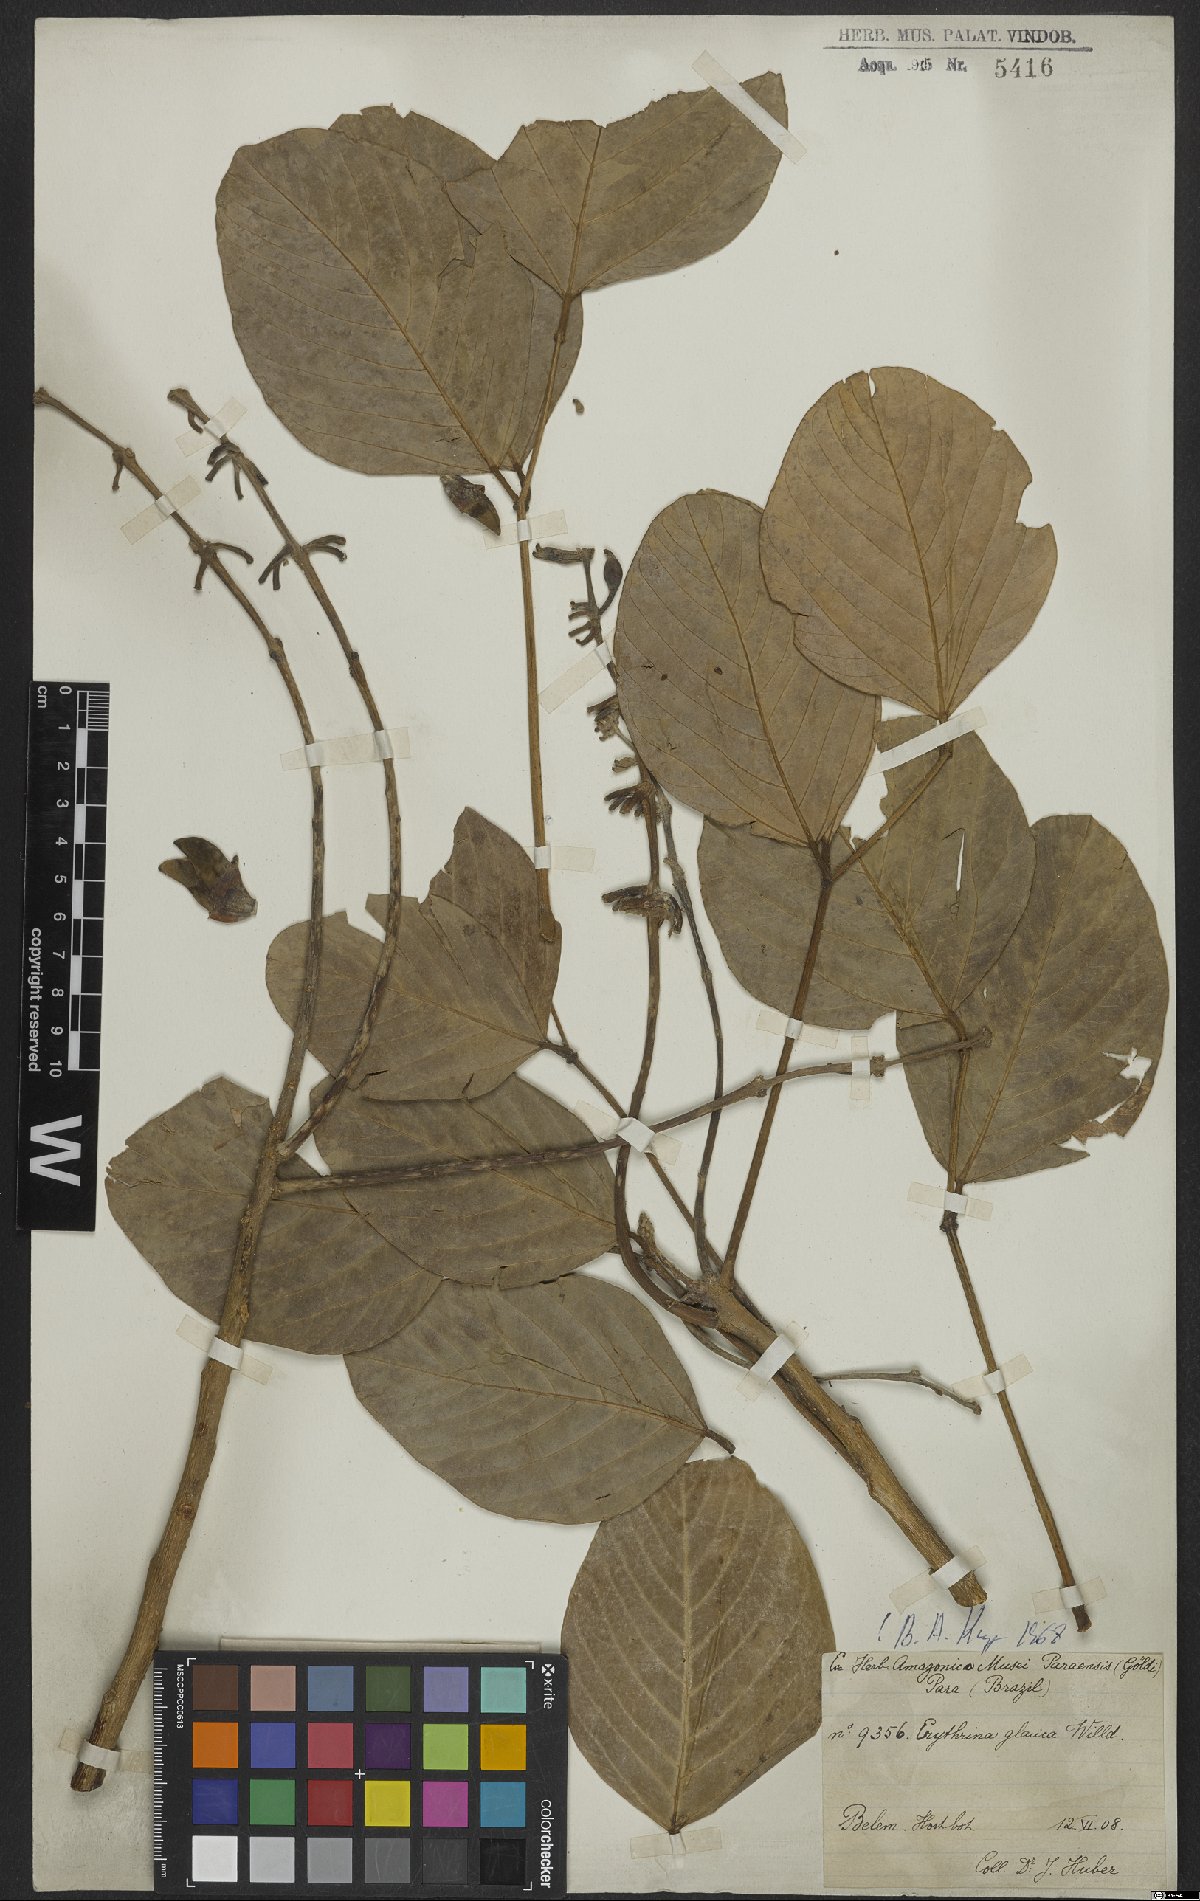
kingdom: Plantae
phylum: Tracheophyta
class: Magnoliopsida
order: Fabales
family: Fabaceae
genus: Erythrina
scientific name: Erythrina fusca
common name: Coral-bean
